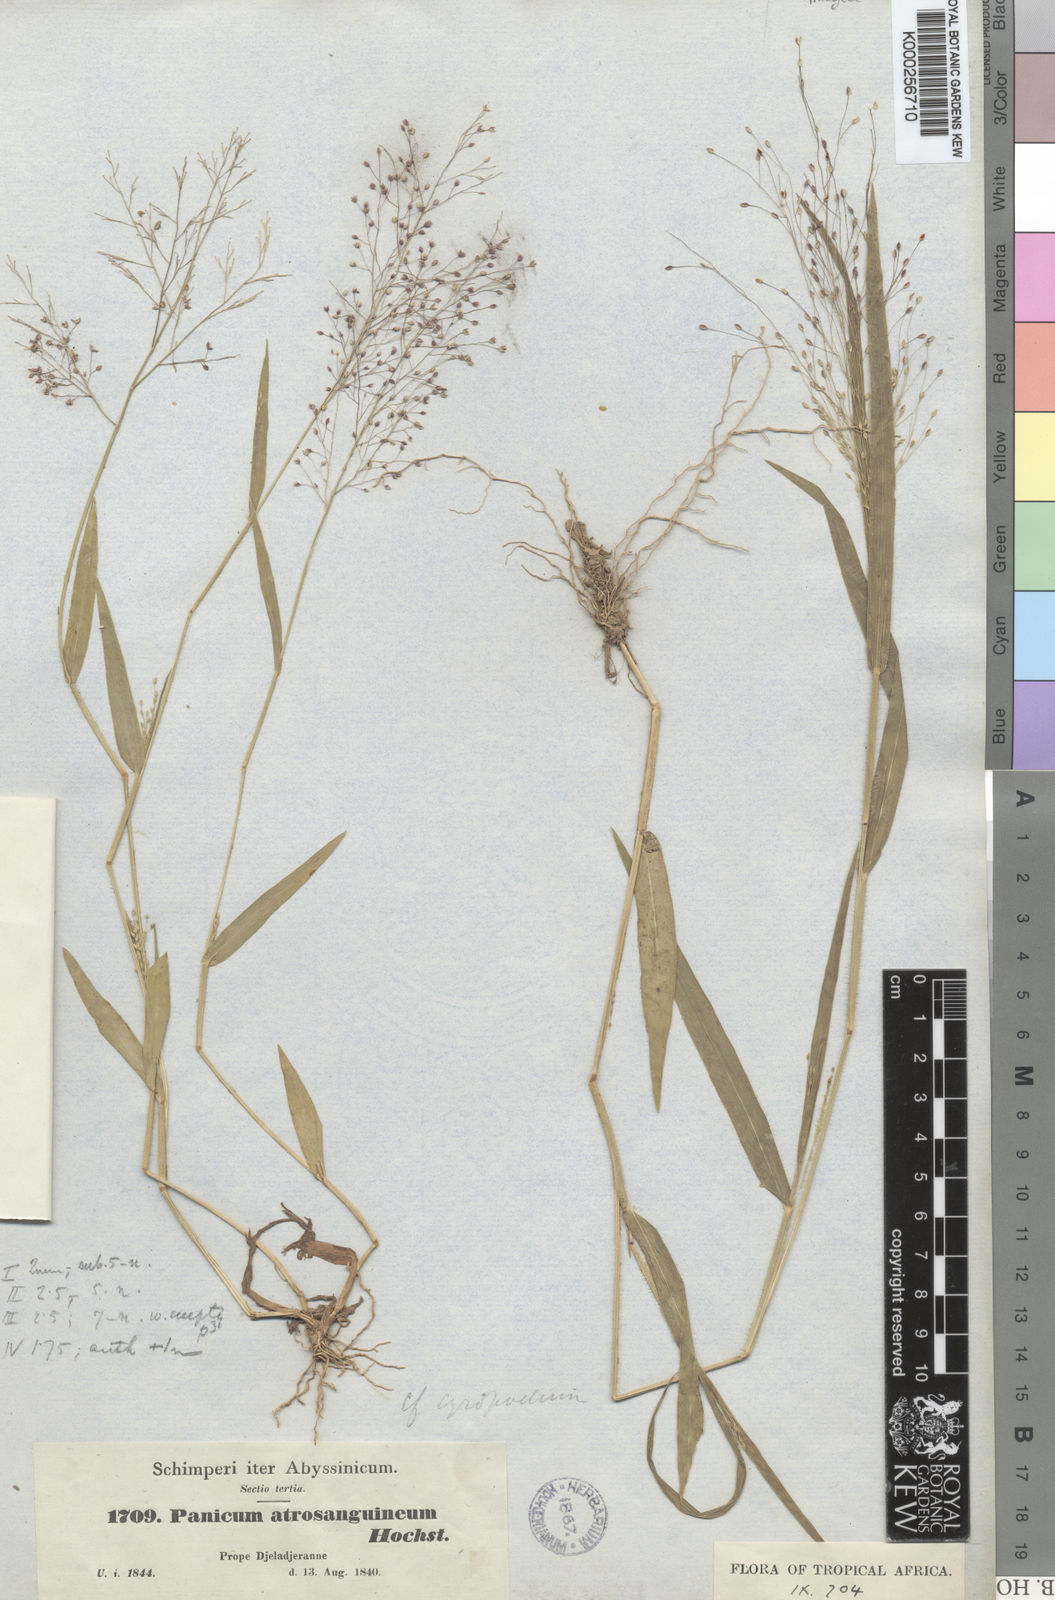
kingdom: Plantae
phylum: Tracheophyta
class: Liliopsida
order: Poales
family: Poaceae
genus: Panicum
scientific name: Panicum atrosanguineum
